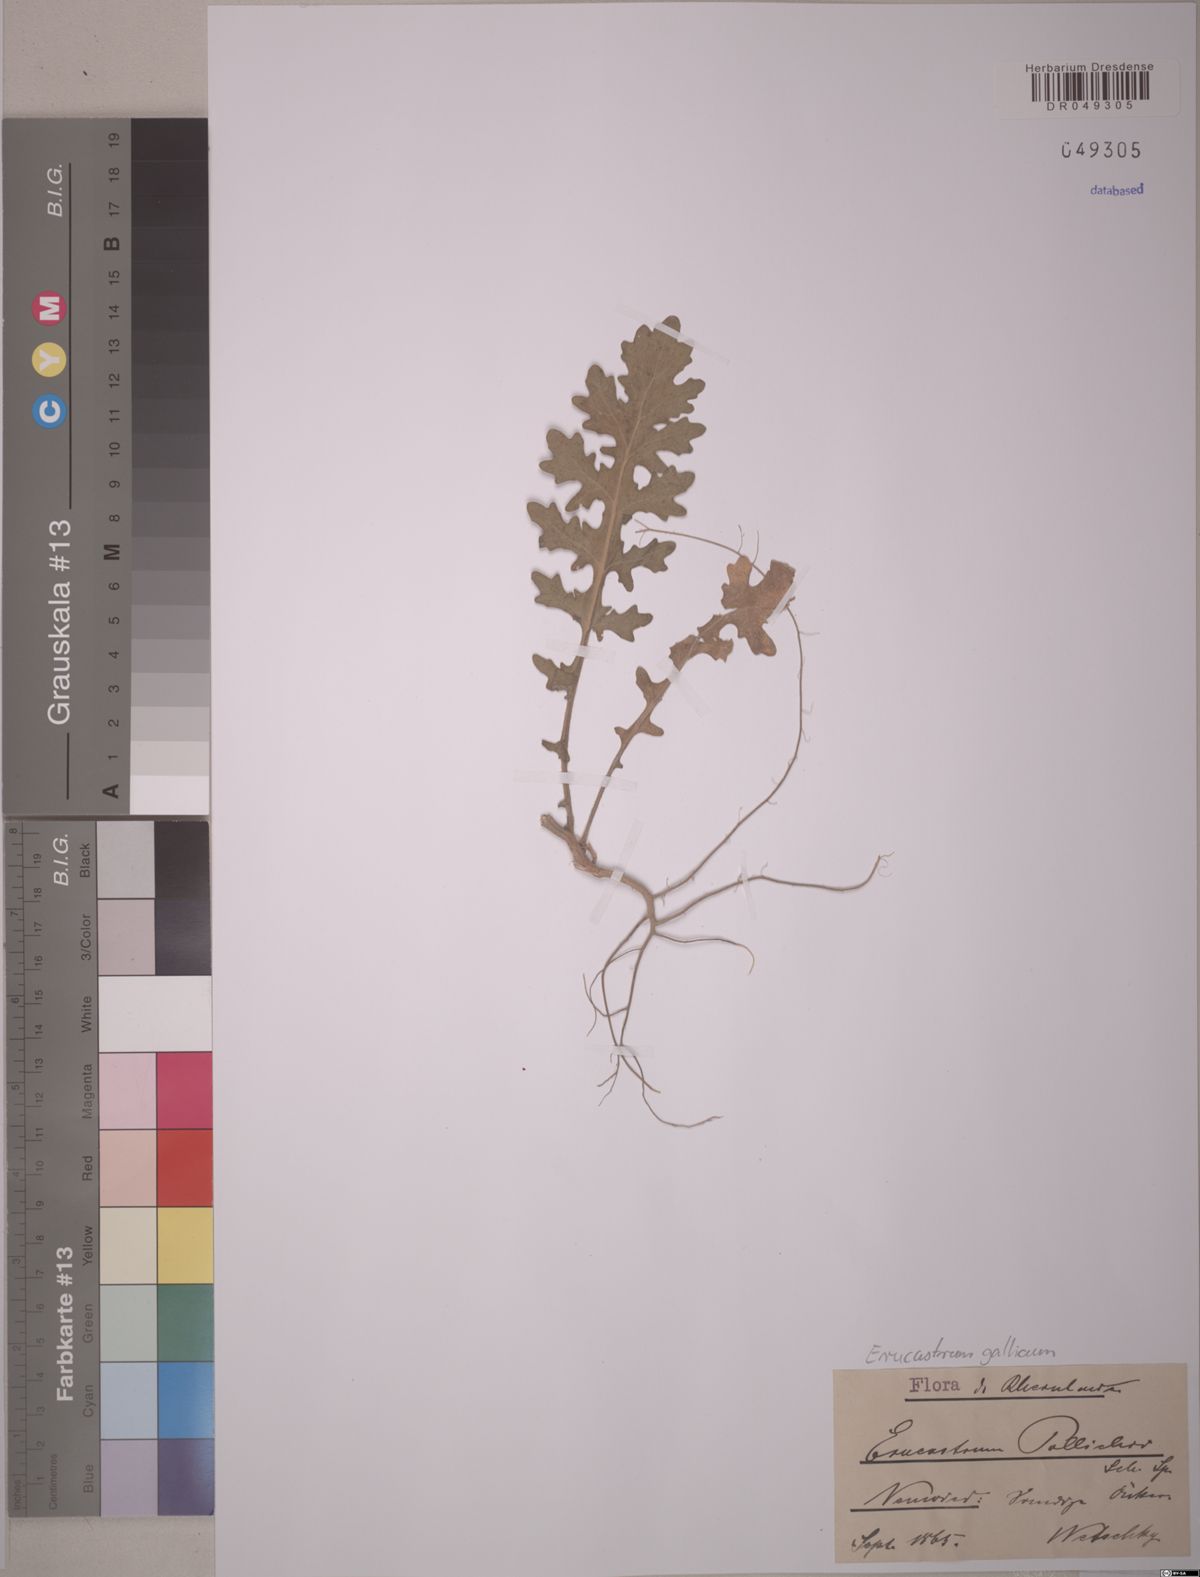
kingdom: Plantae
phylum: Tracheophyta
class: Magnoliopsida
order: Brassicales
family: Brassicaceae
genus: Erucastrum
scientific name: Erucastrum gallicum
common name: Hairy rocket
